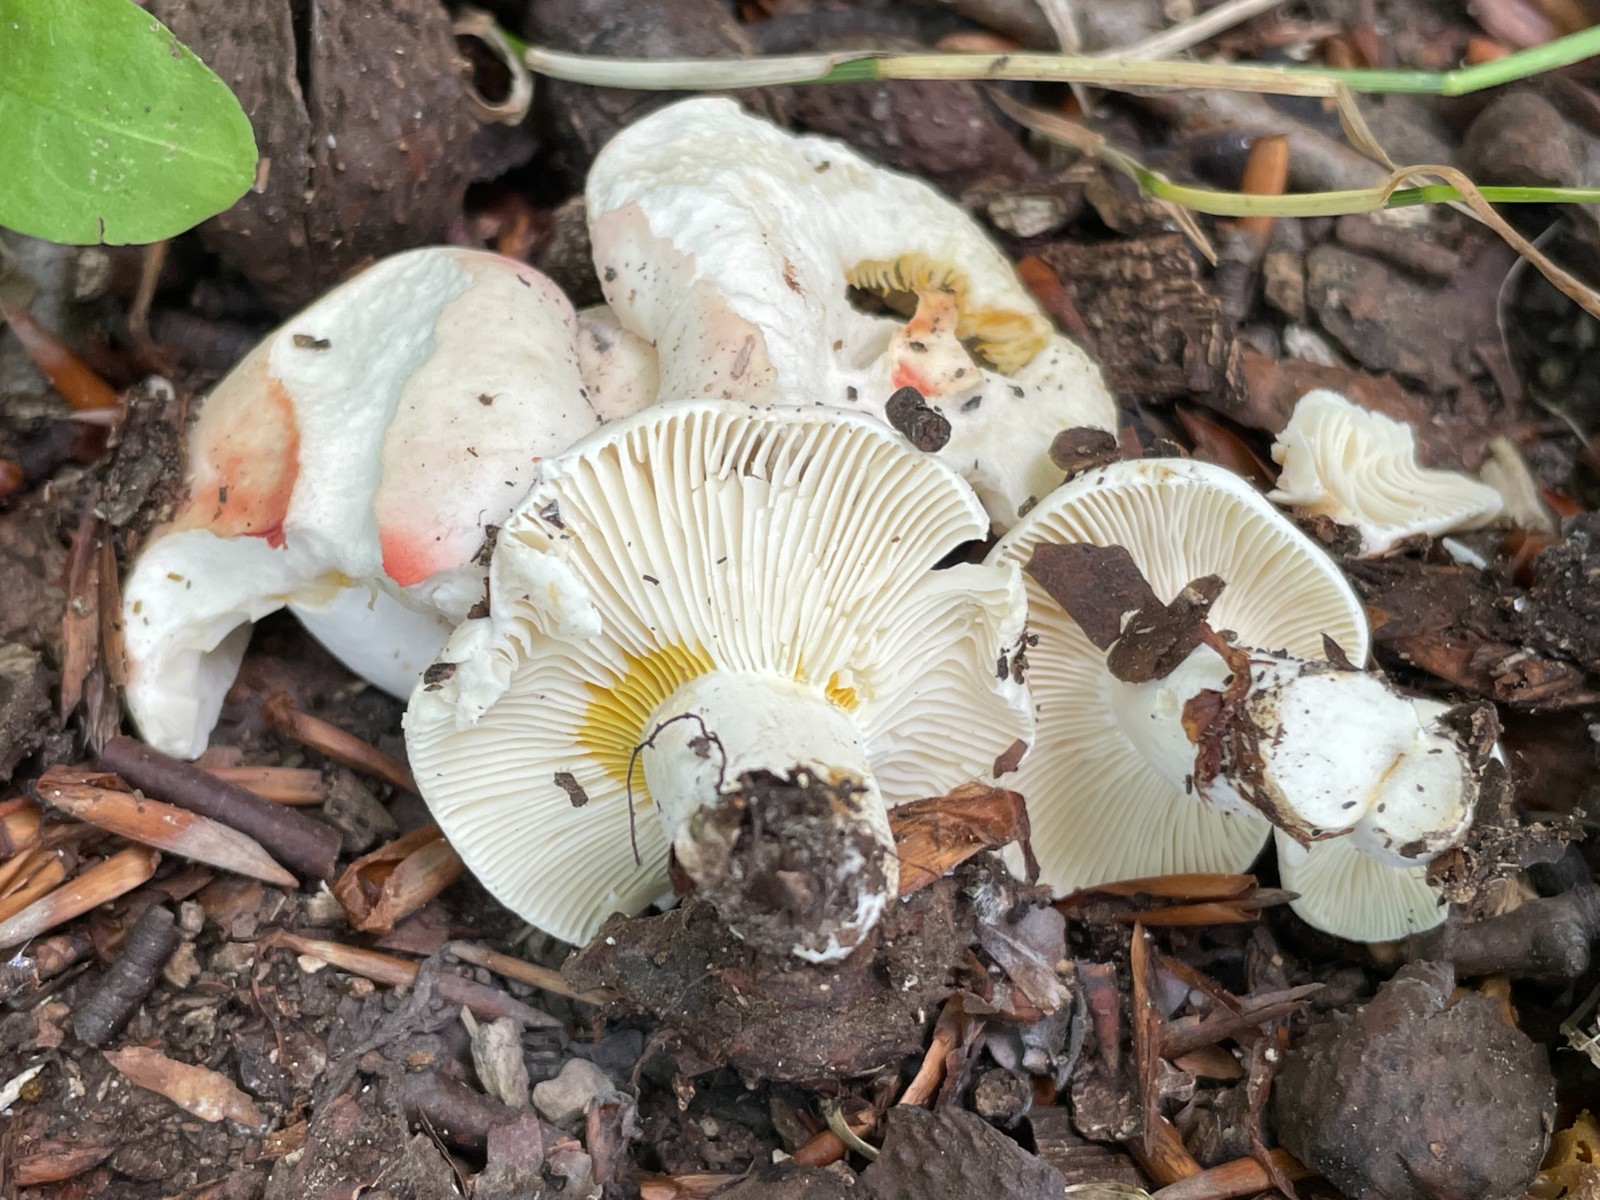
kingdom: Fungi
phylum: Basidiomycota
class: Agaricomycetes
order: Russulales
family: Russulaceae
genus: Russula
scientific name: Russula luteotacta
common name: gulplettet gift-skørhat
